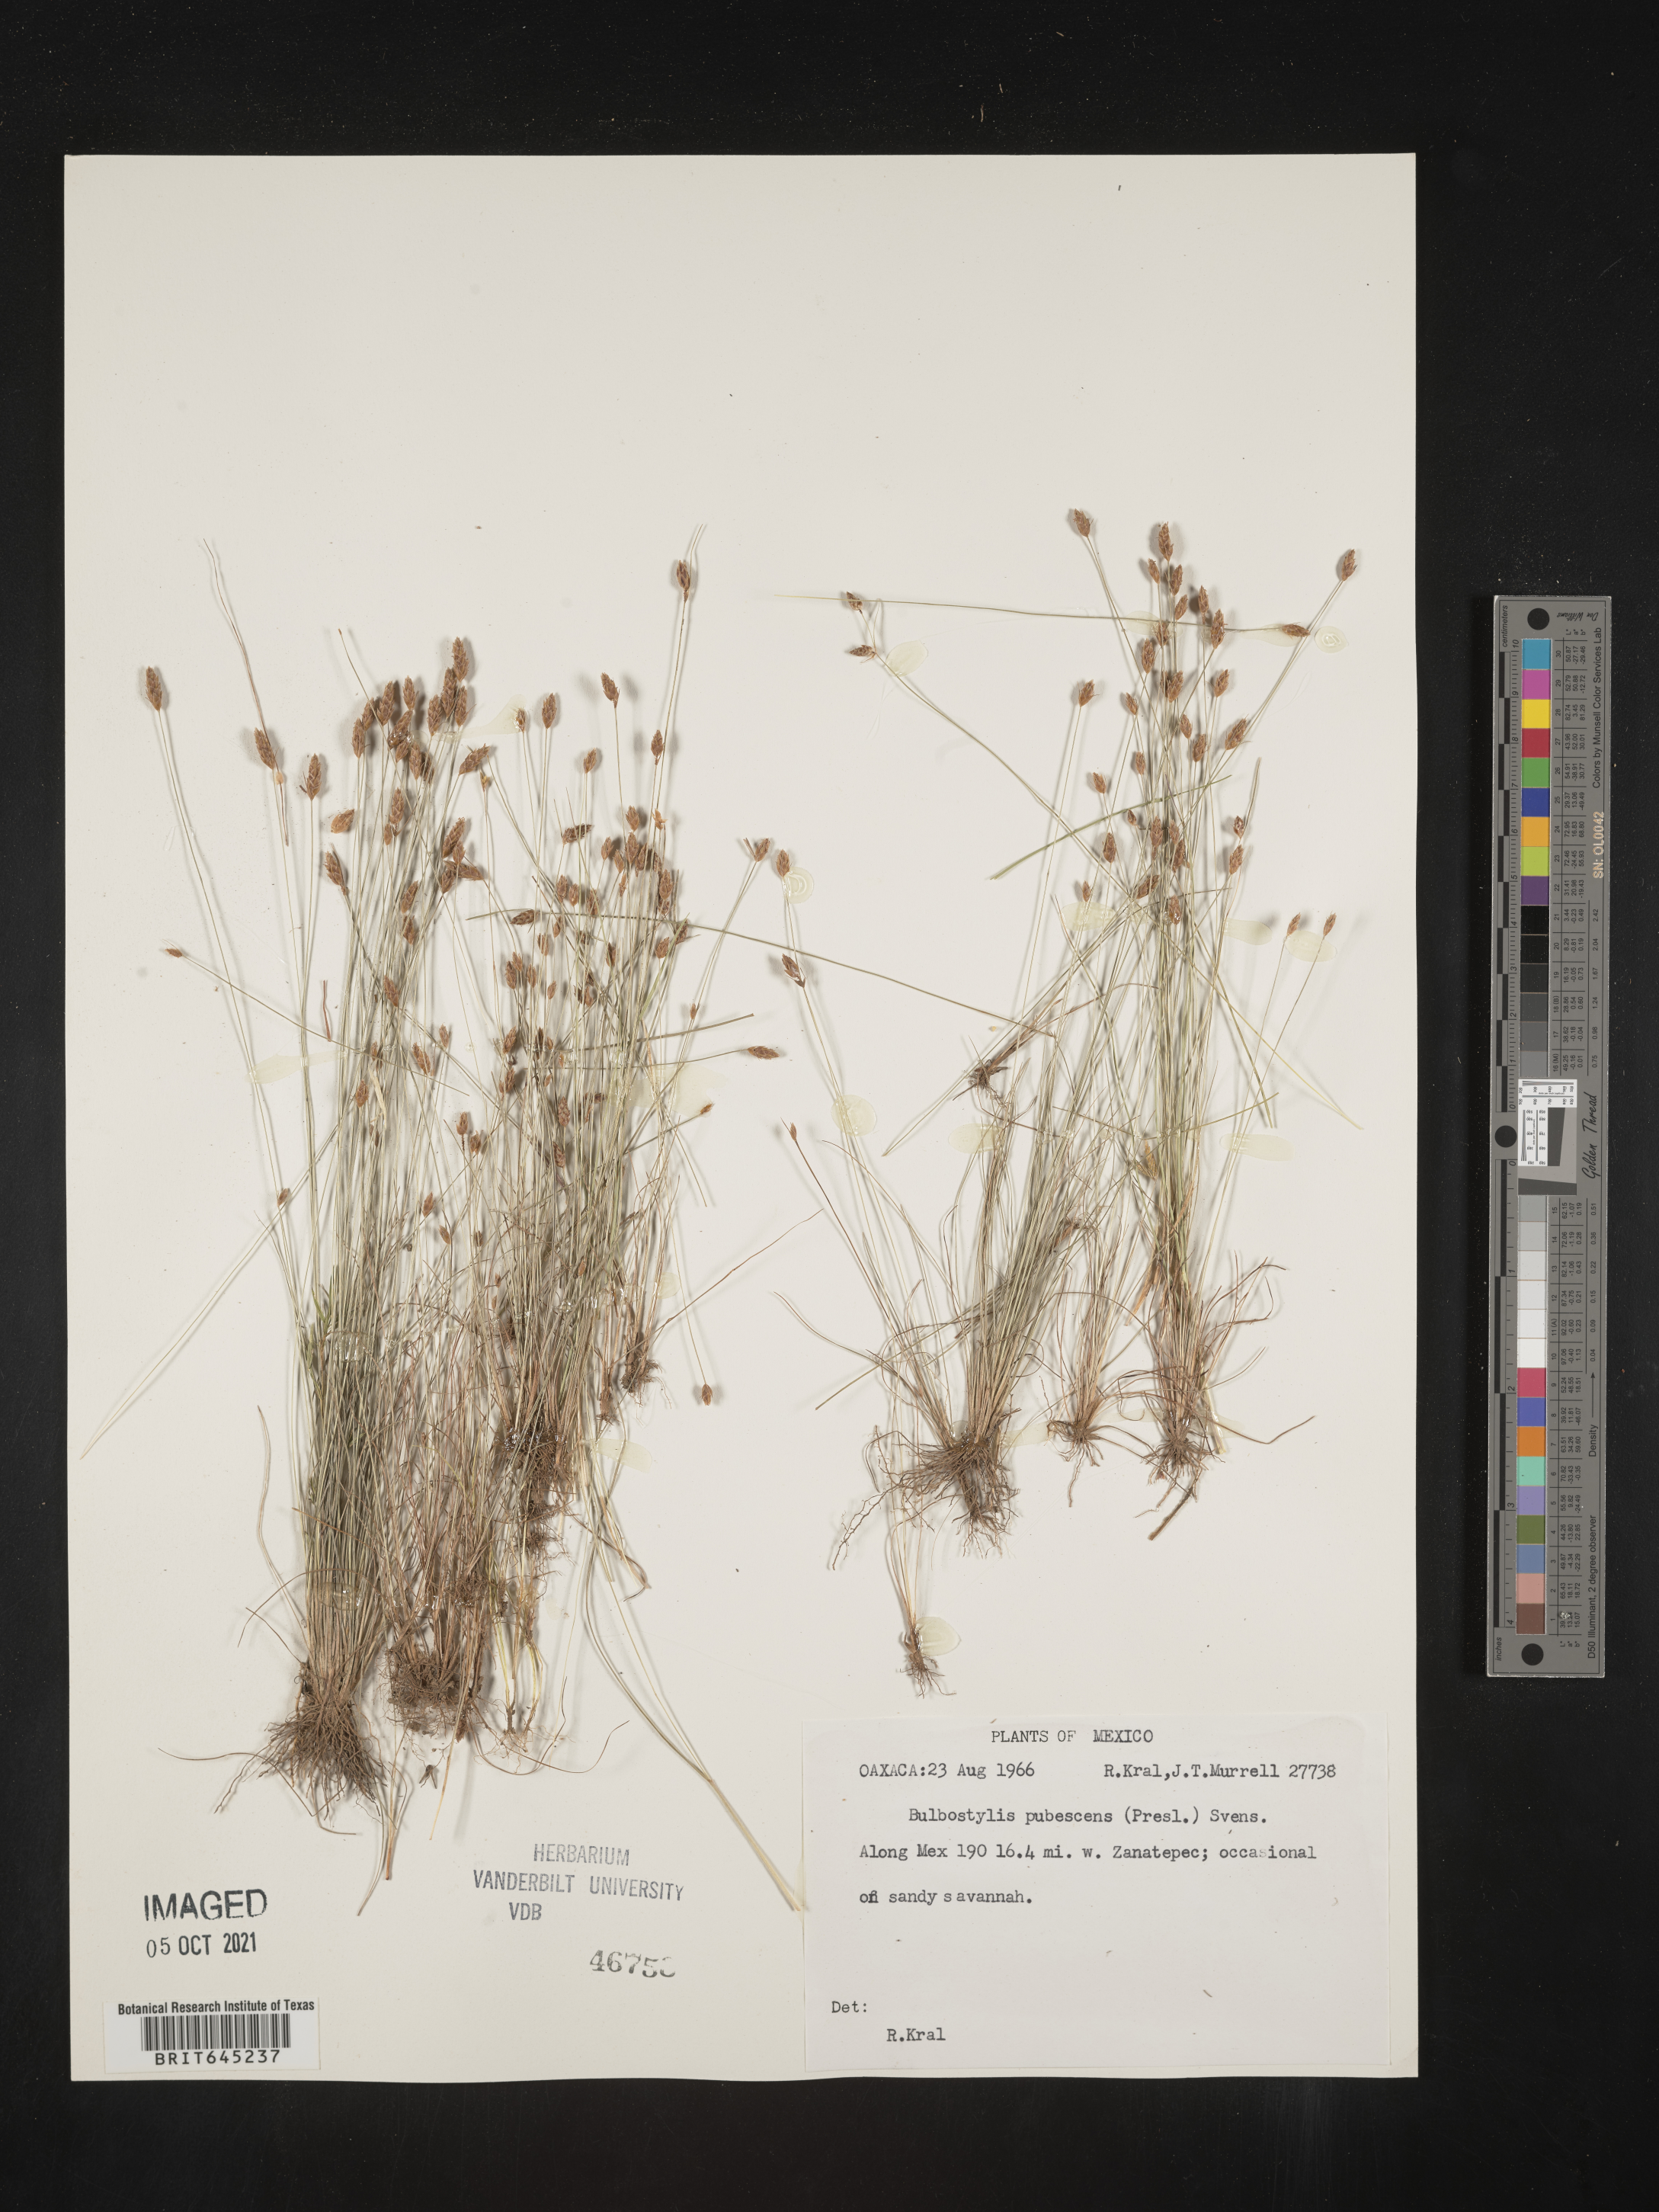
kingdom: Plantae
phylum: Tracheophyta
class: Liliopsida
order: Poales
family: Cyperaceae
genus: Bulbostylis
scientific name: Bulbostylis pubescens
